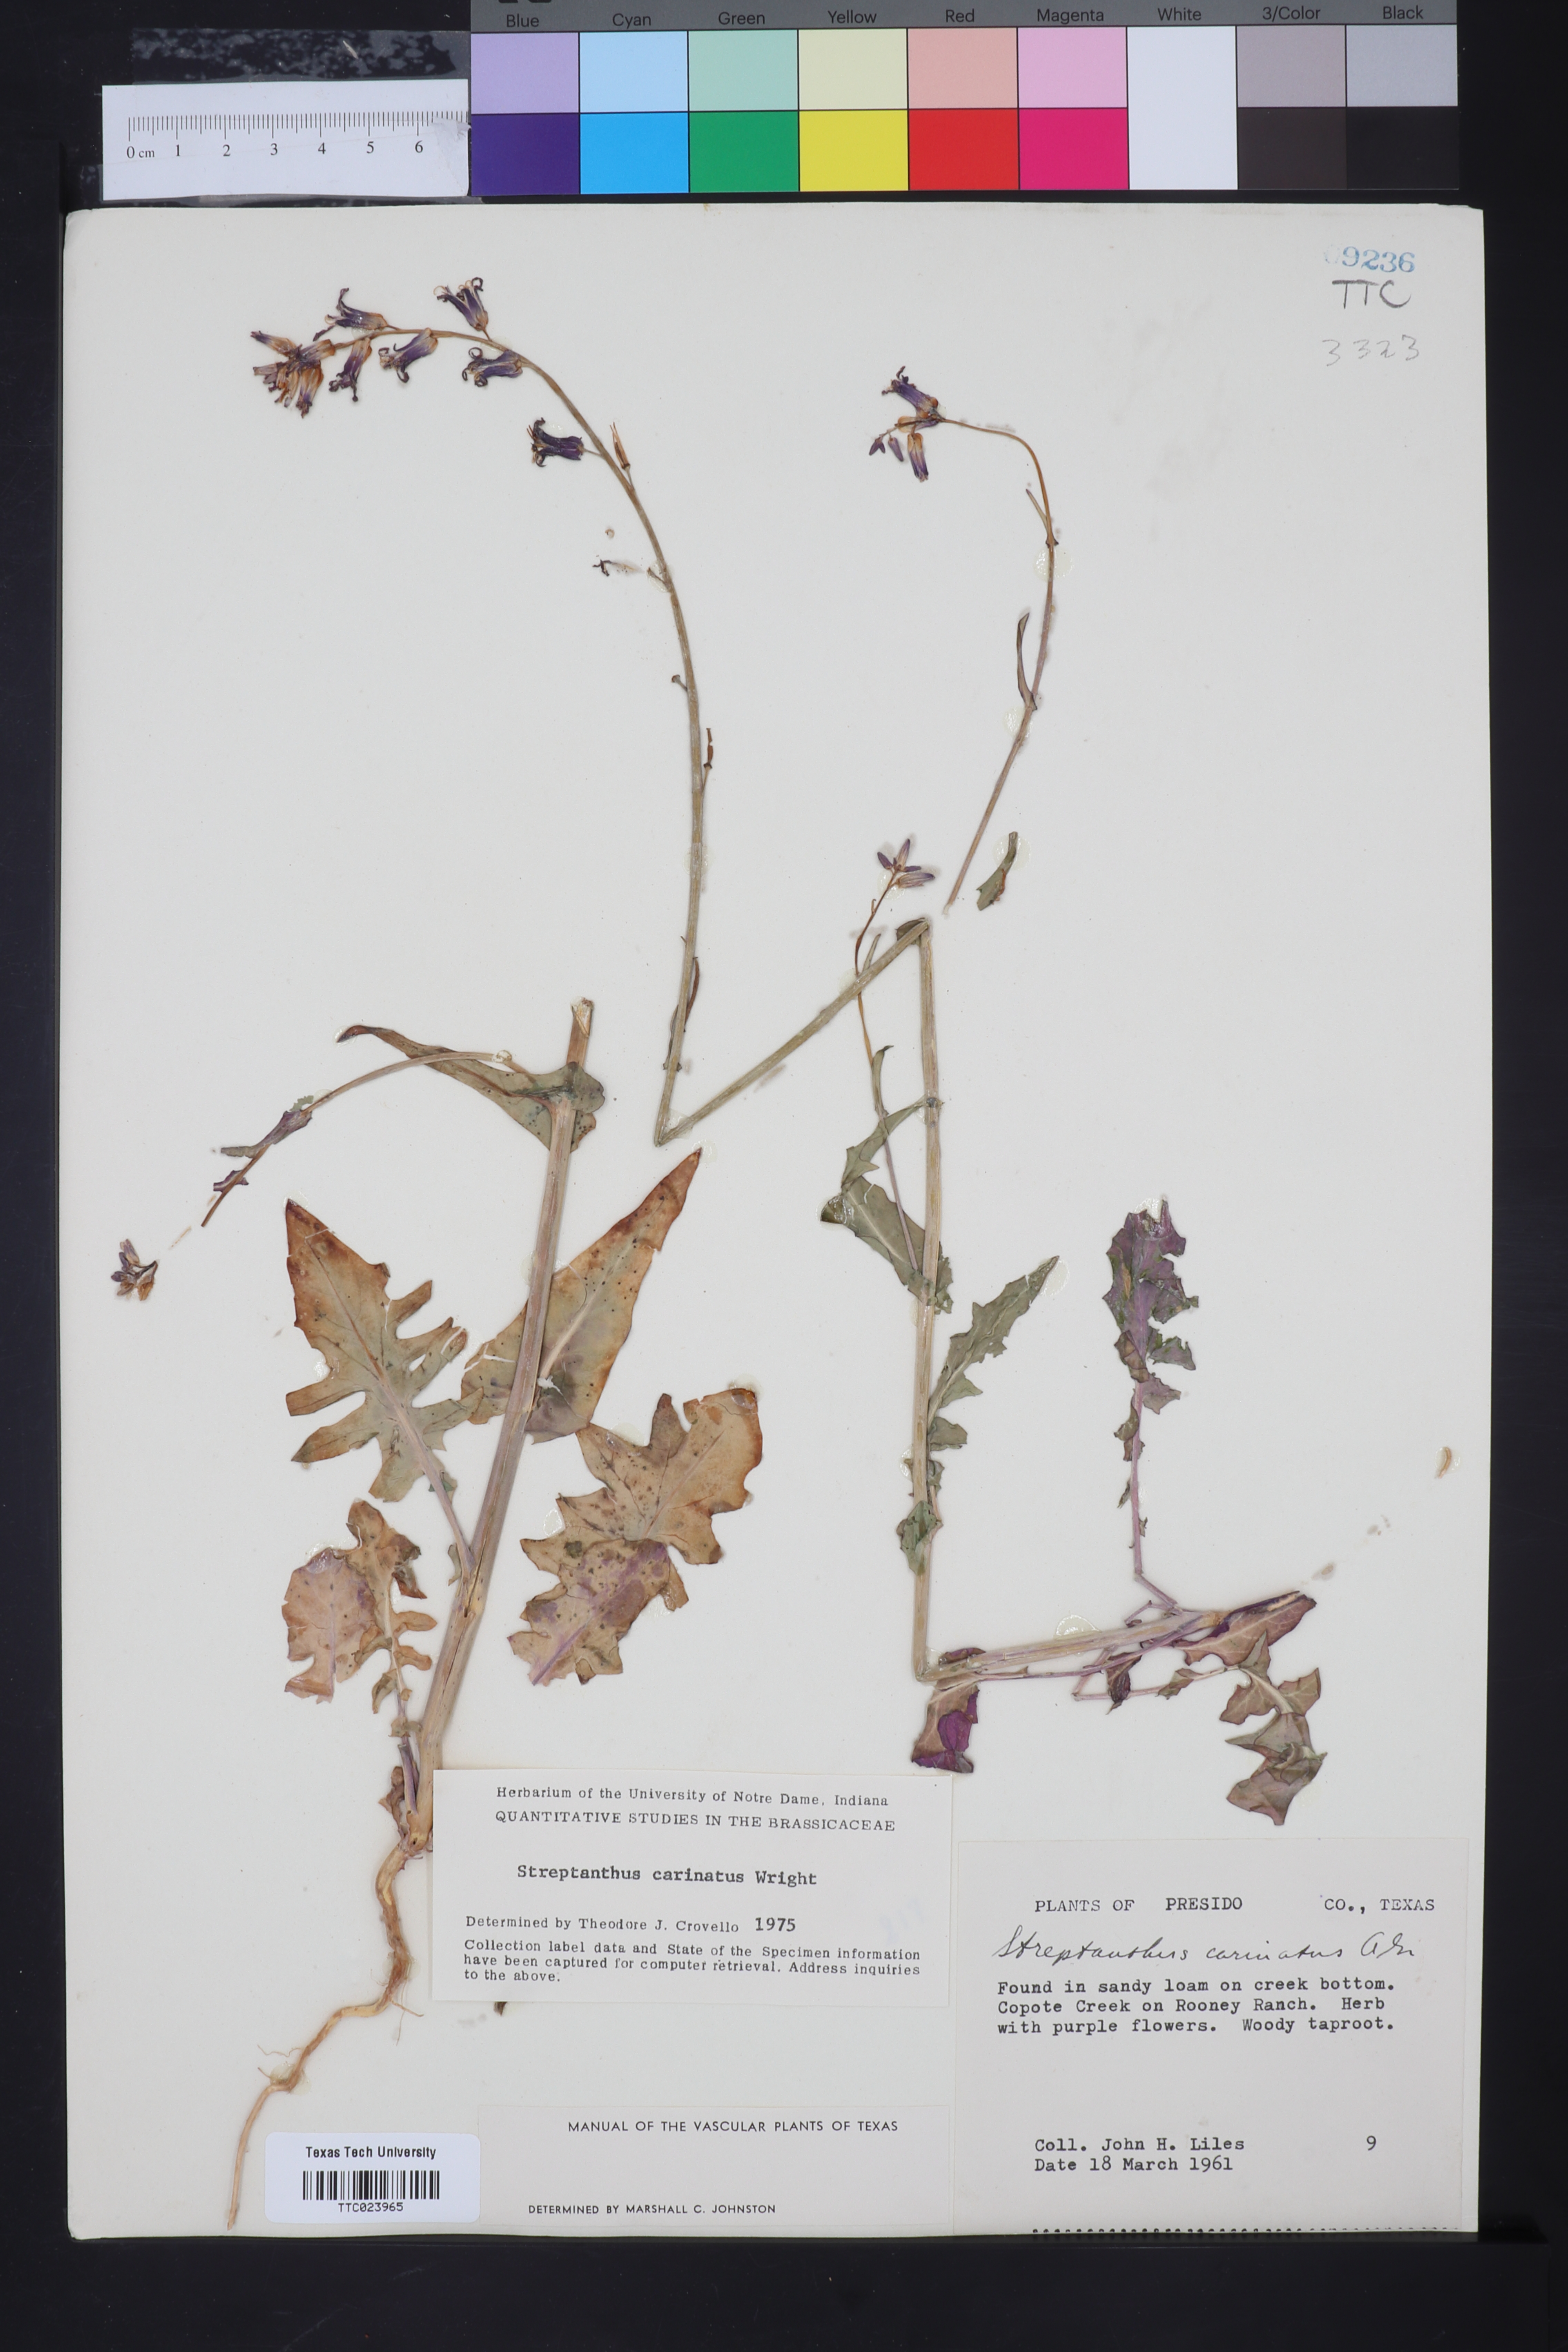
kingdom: Plantae
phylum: Tracheophyta
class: Magnoliopsida
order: Brassicales
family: Brassicaceae
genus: Streptanthus
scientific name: Streptanthus carinatus
